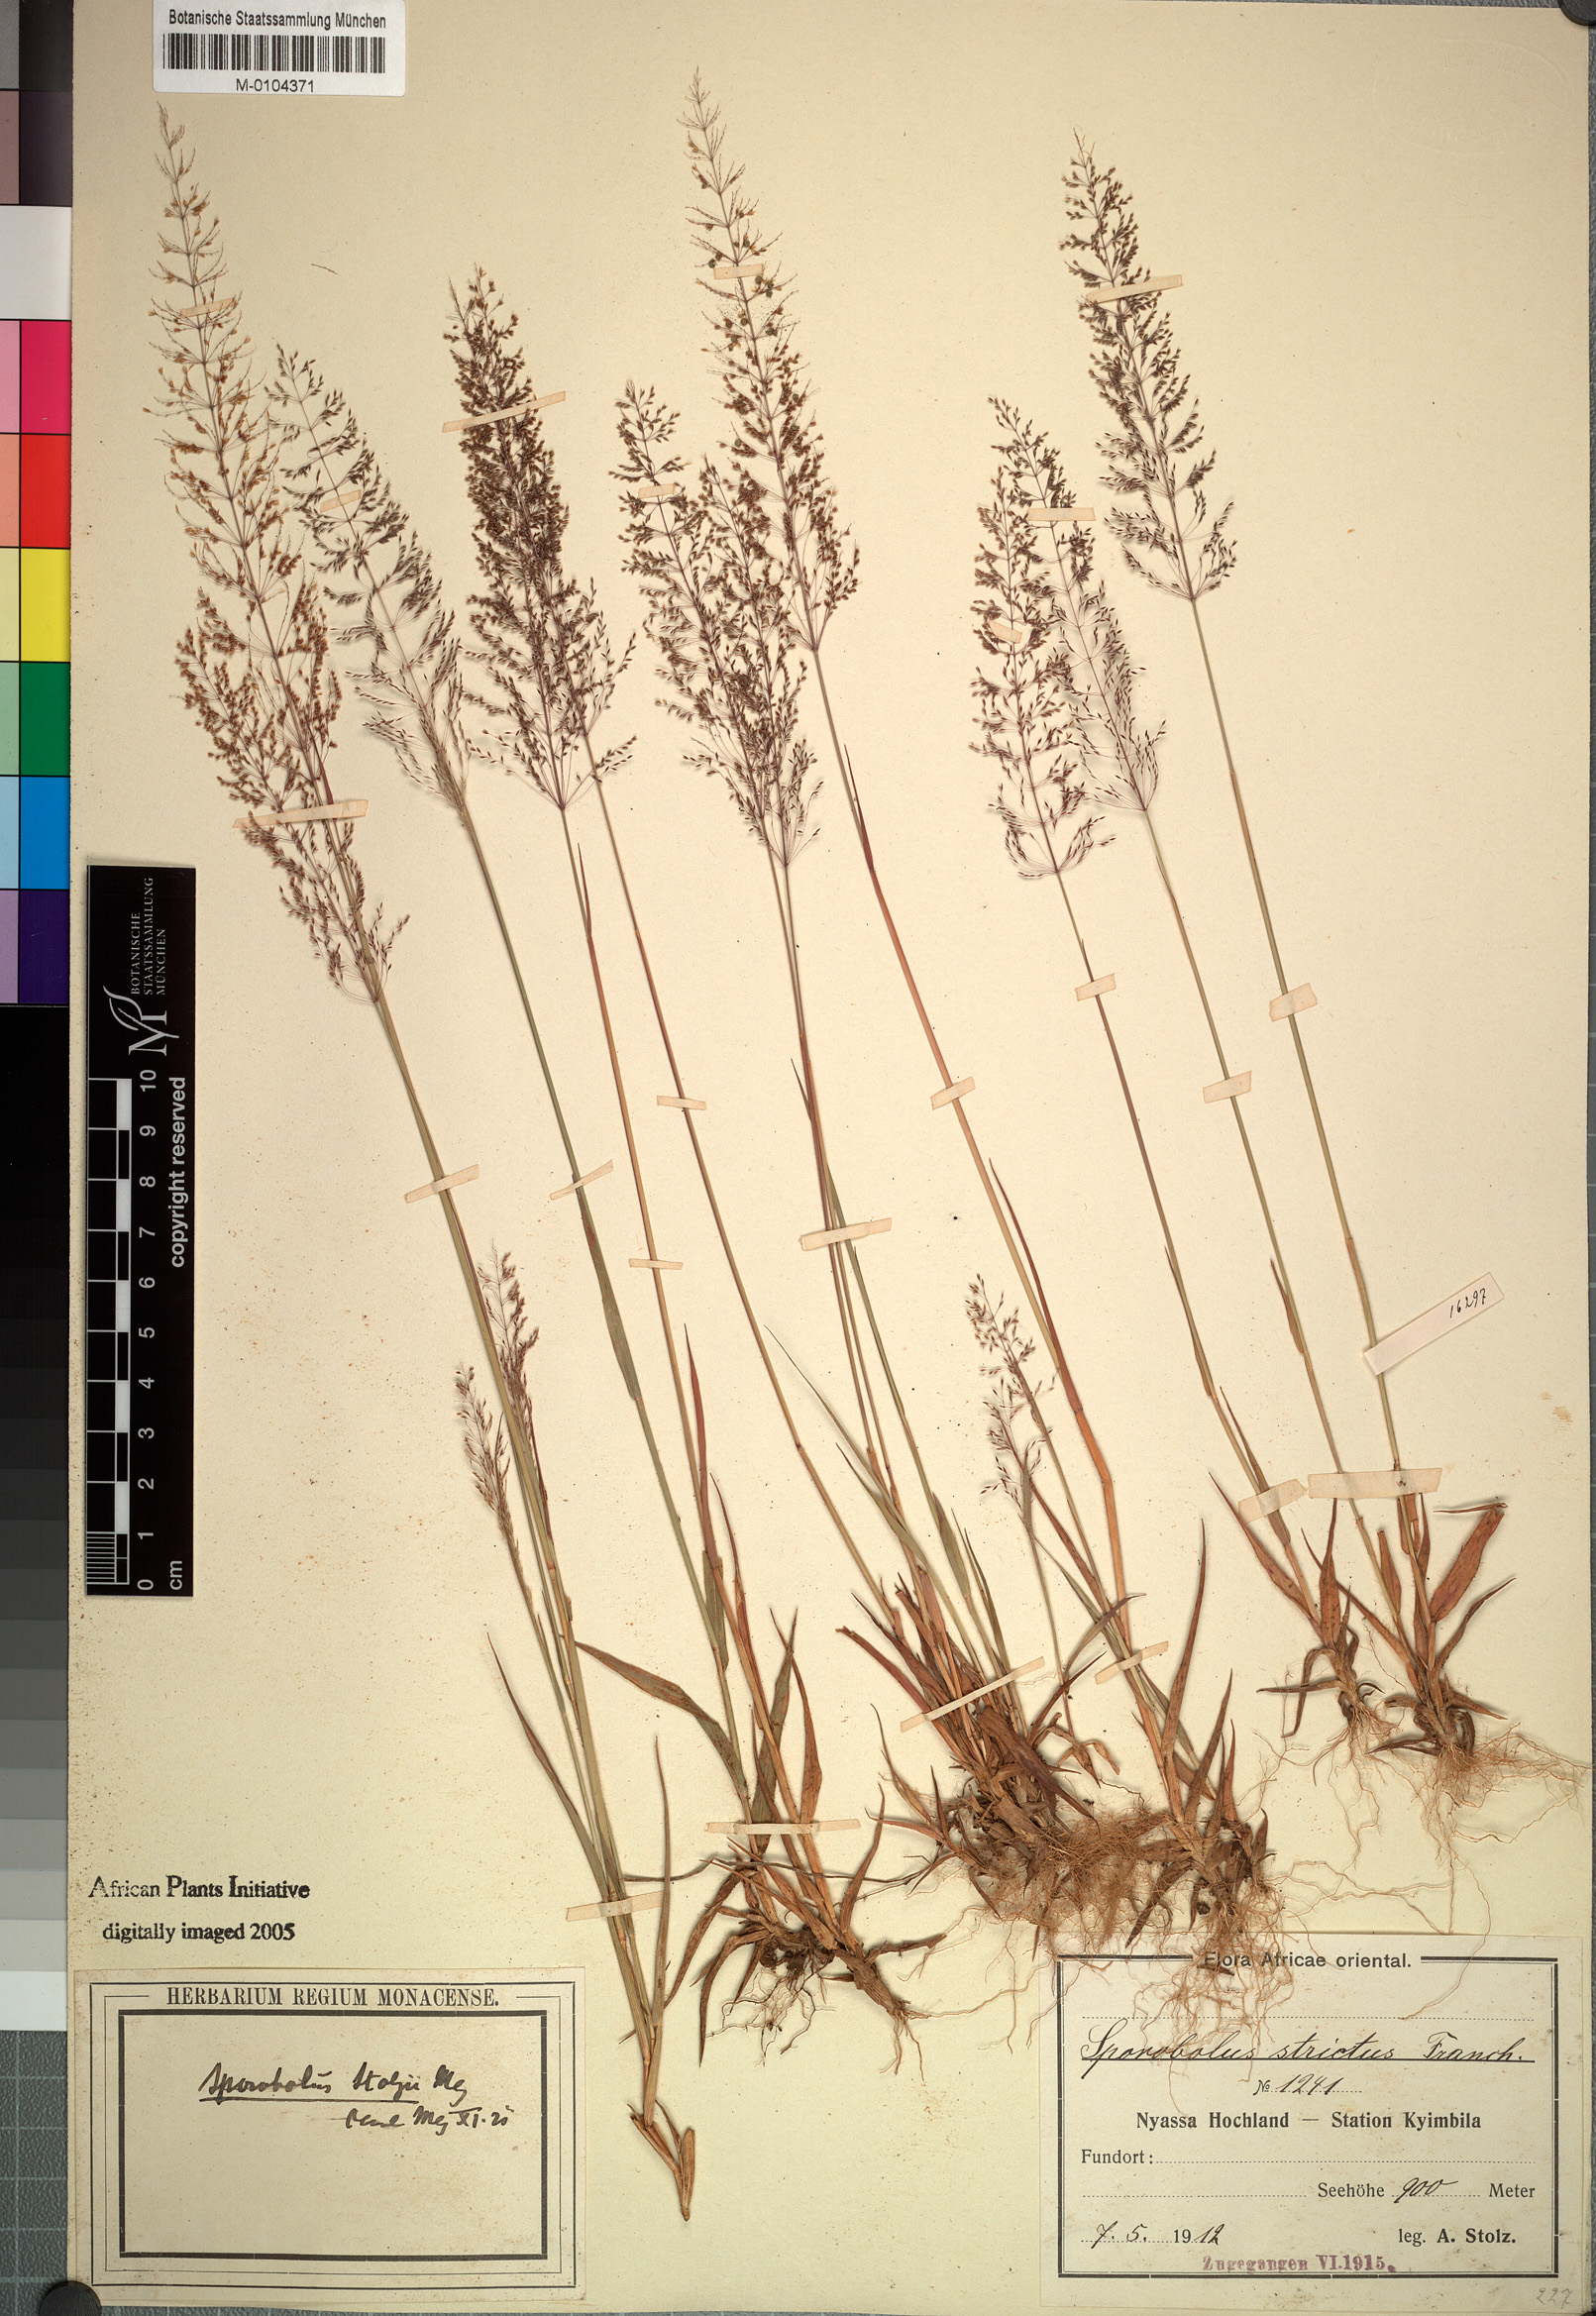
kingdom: Plantae
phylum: Tracheophyta
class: Liliopsida
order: Poales
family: Poaceae
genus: Sporobolus
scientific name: Sporobolus stolzii
